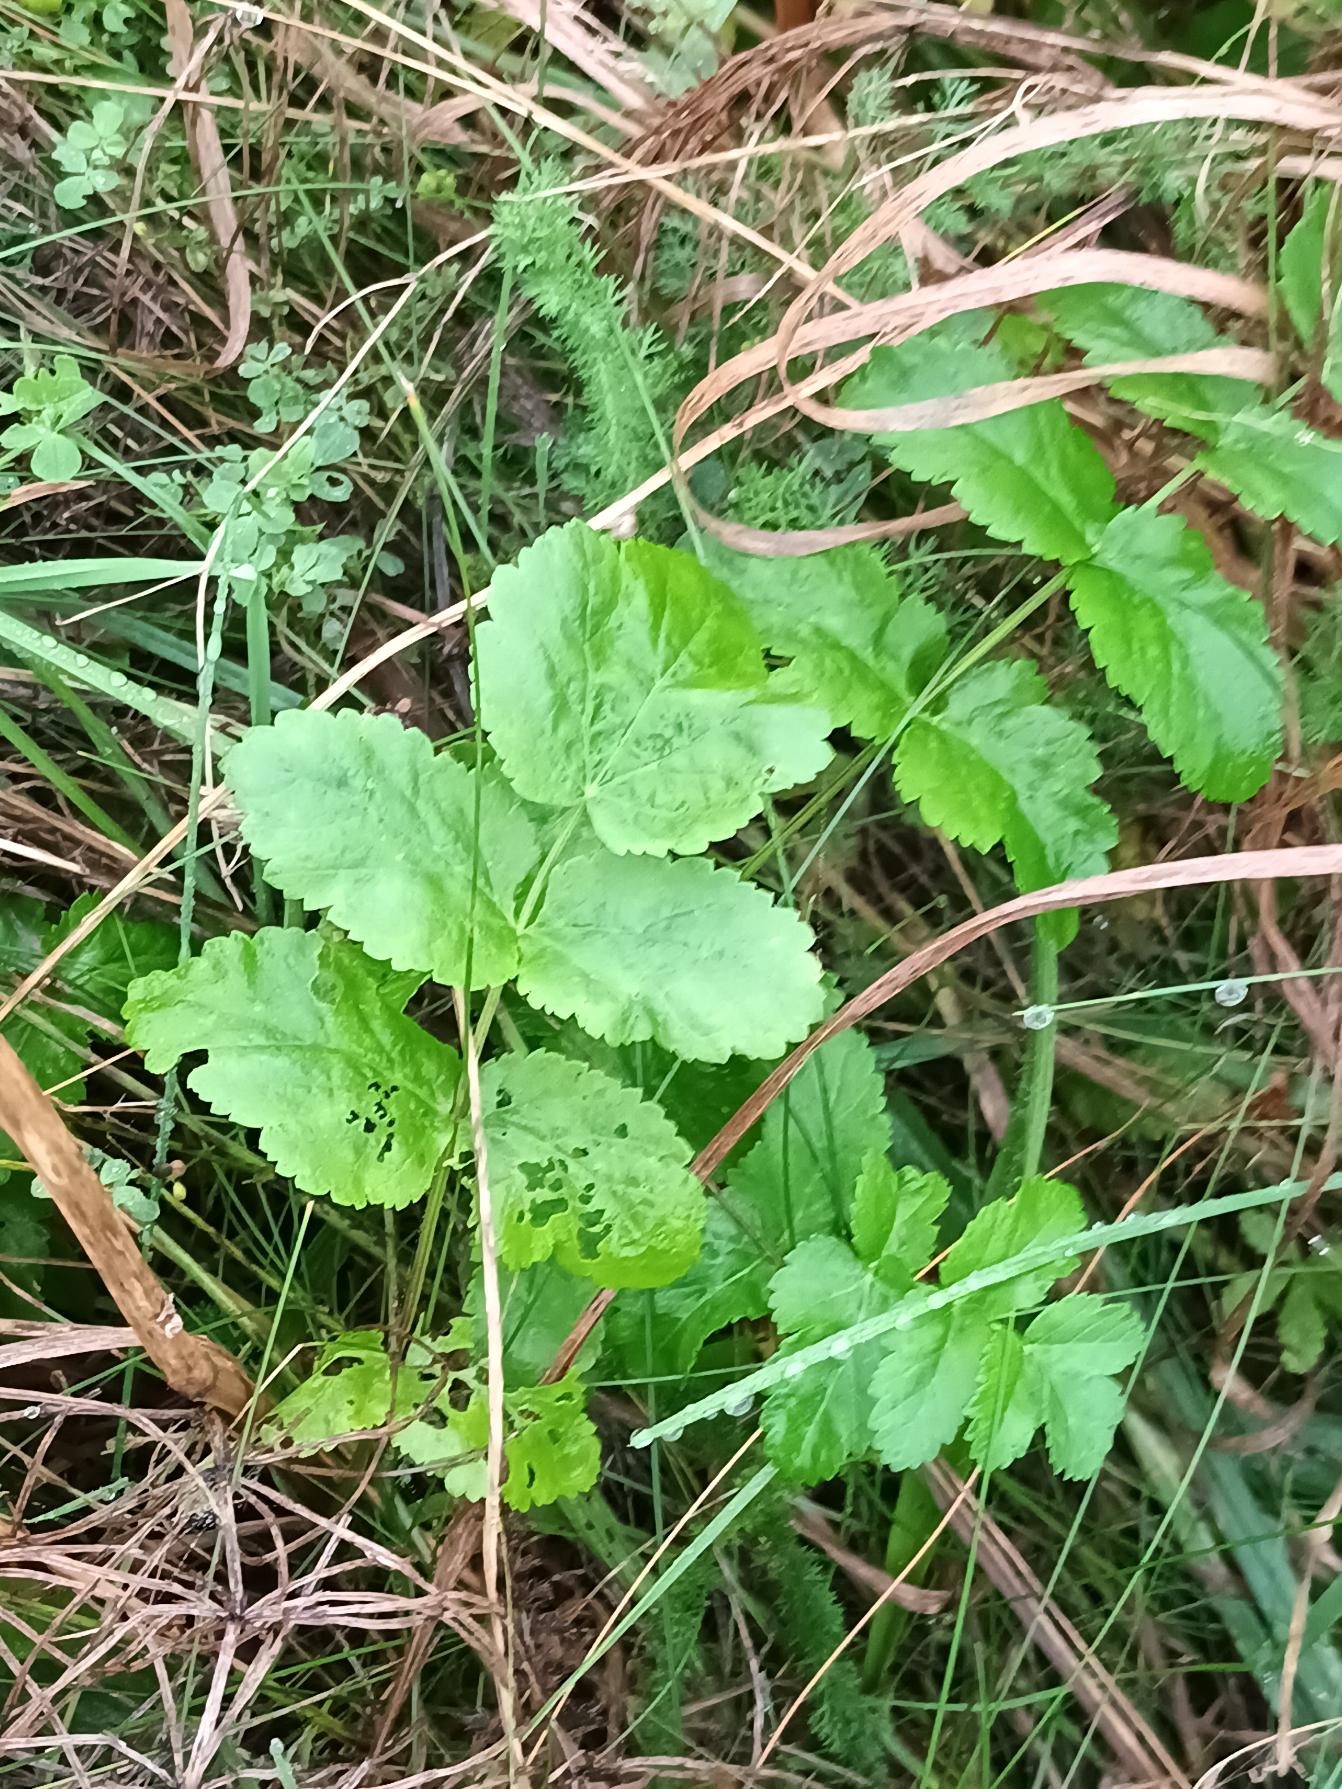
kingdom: Plantae
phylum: Tracheophyta
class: Magnoliopsida
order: Apiales
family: Apiaceae
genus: Pastinaca
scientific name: Pastinaca sativa
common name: Pastinak
